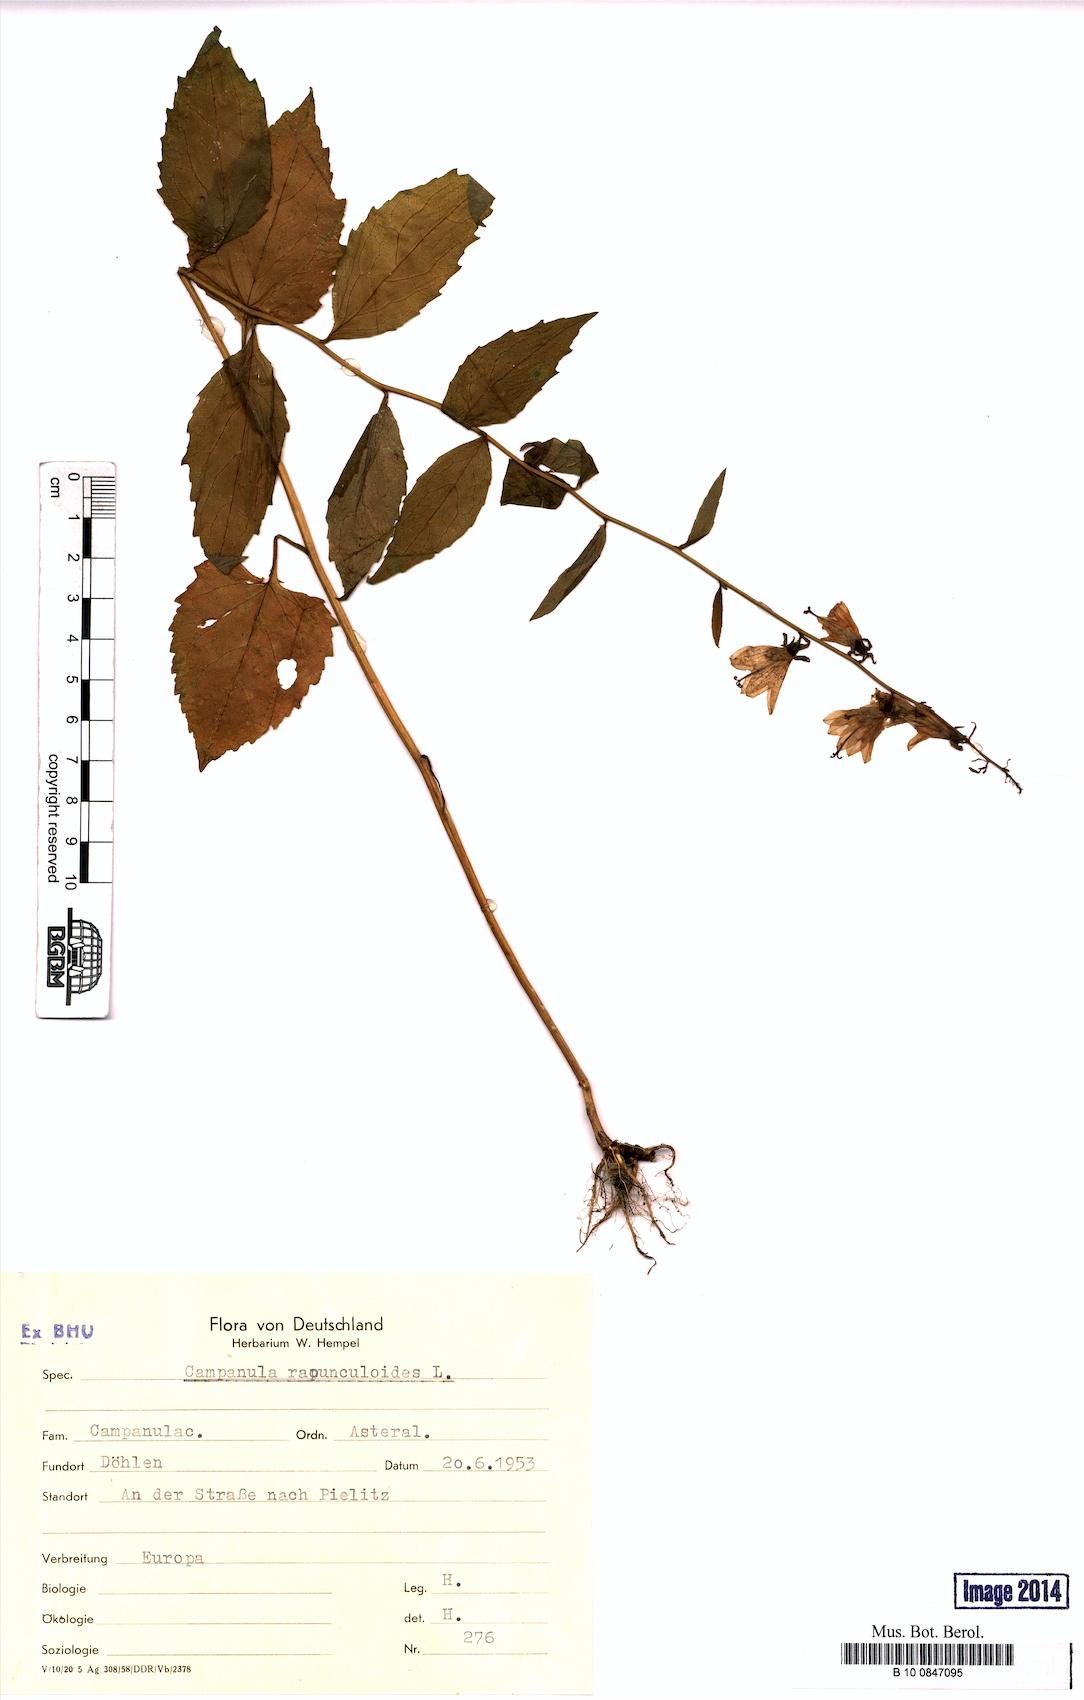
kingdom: Plantae
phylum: Tracheophyta
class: Magnoliopsida
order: Asterales
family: Campanulaceae
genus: Campanula
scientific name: Campanula rapunculoides
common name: Creeping bellflower
